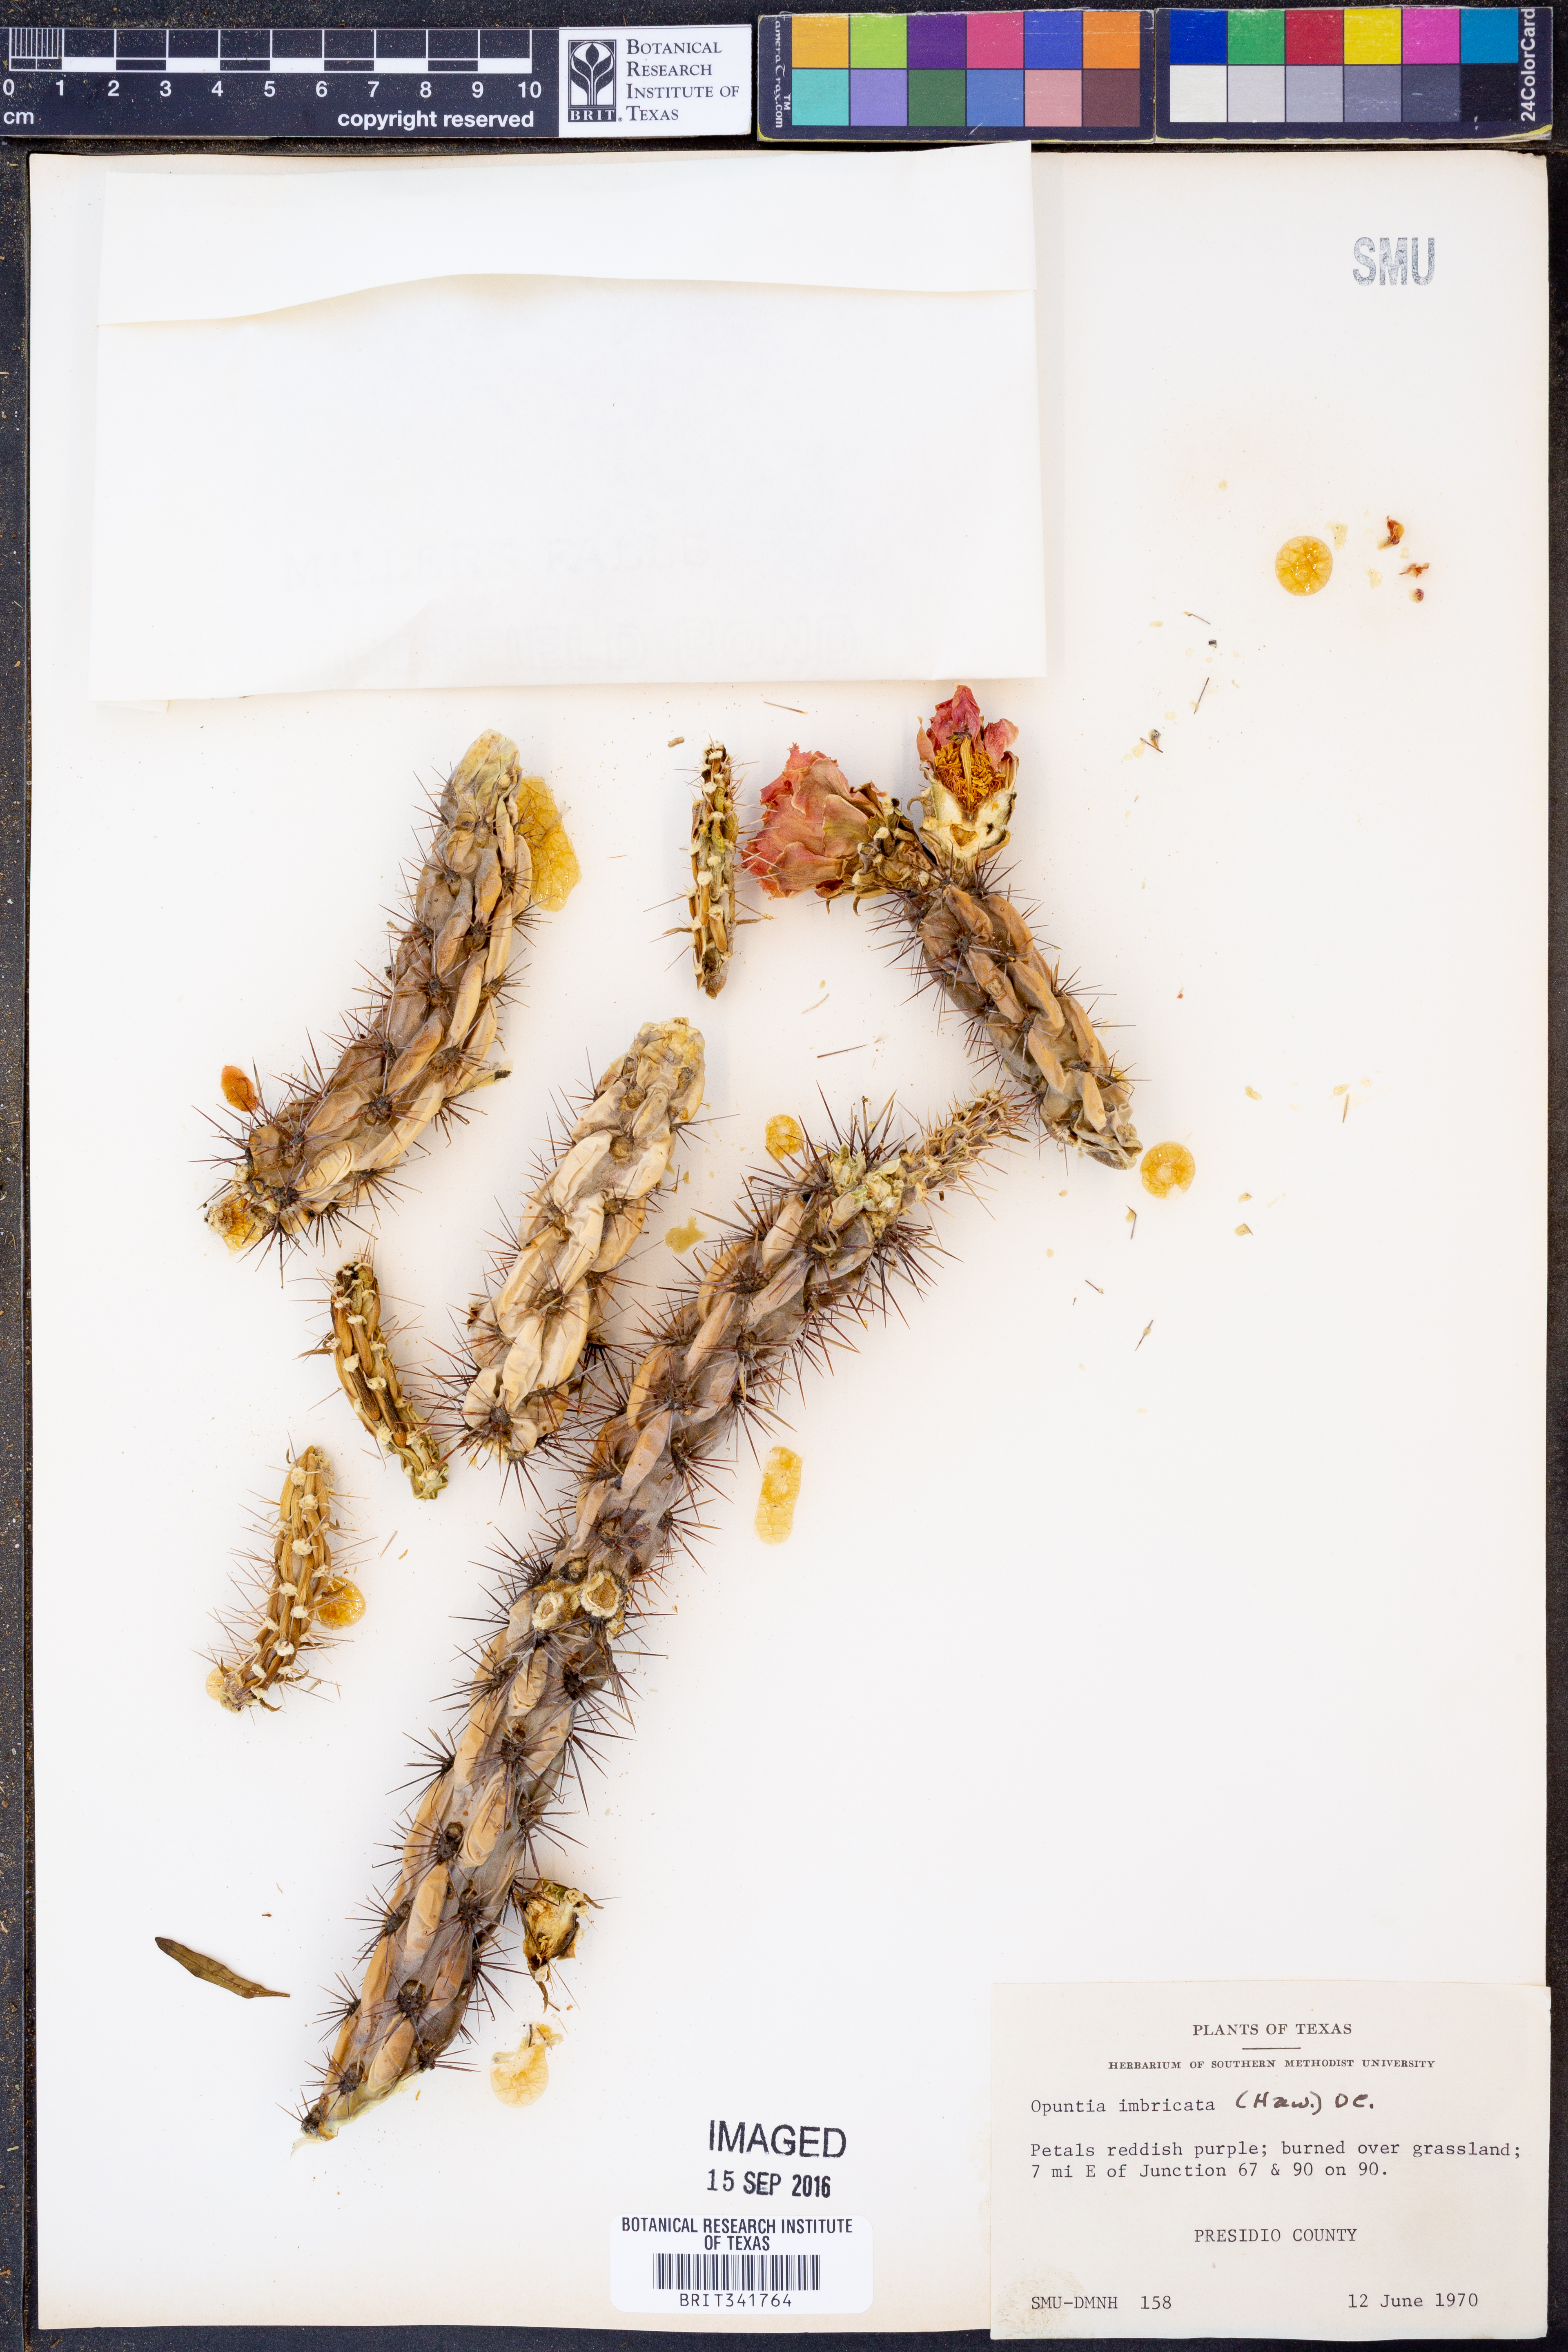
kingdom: Plantae
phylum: Tracheophyta
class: Magnoliopsida
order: Caryophyllales
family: Cactaceae
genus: Cylindropuntia
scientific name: Cylindropuntia imbricata
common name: Candelabrum cactus
